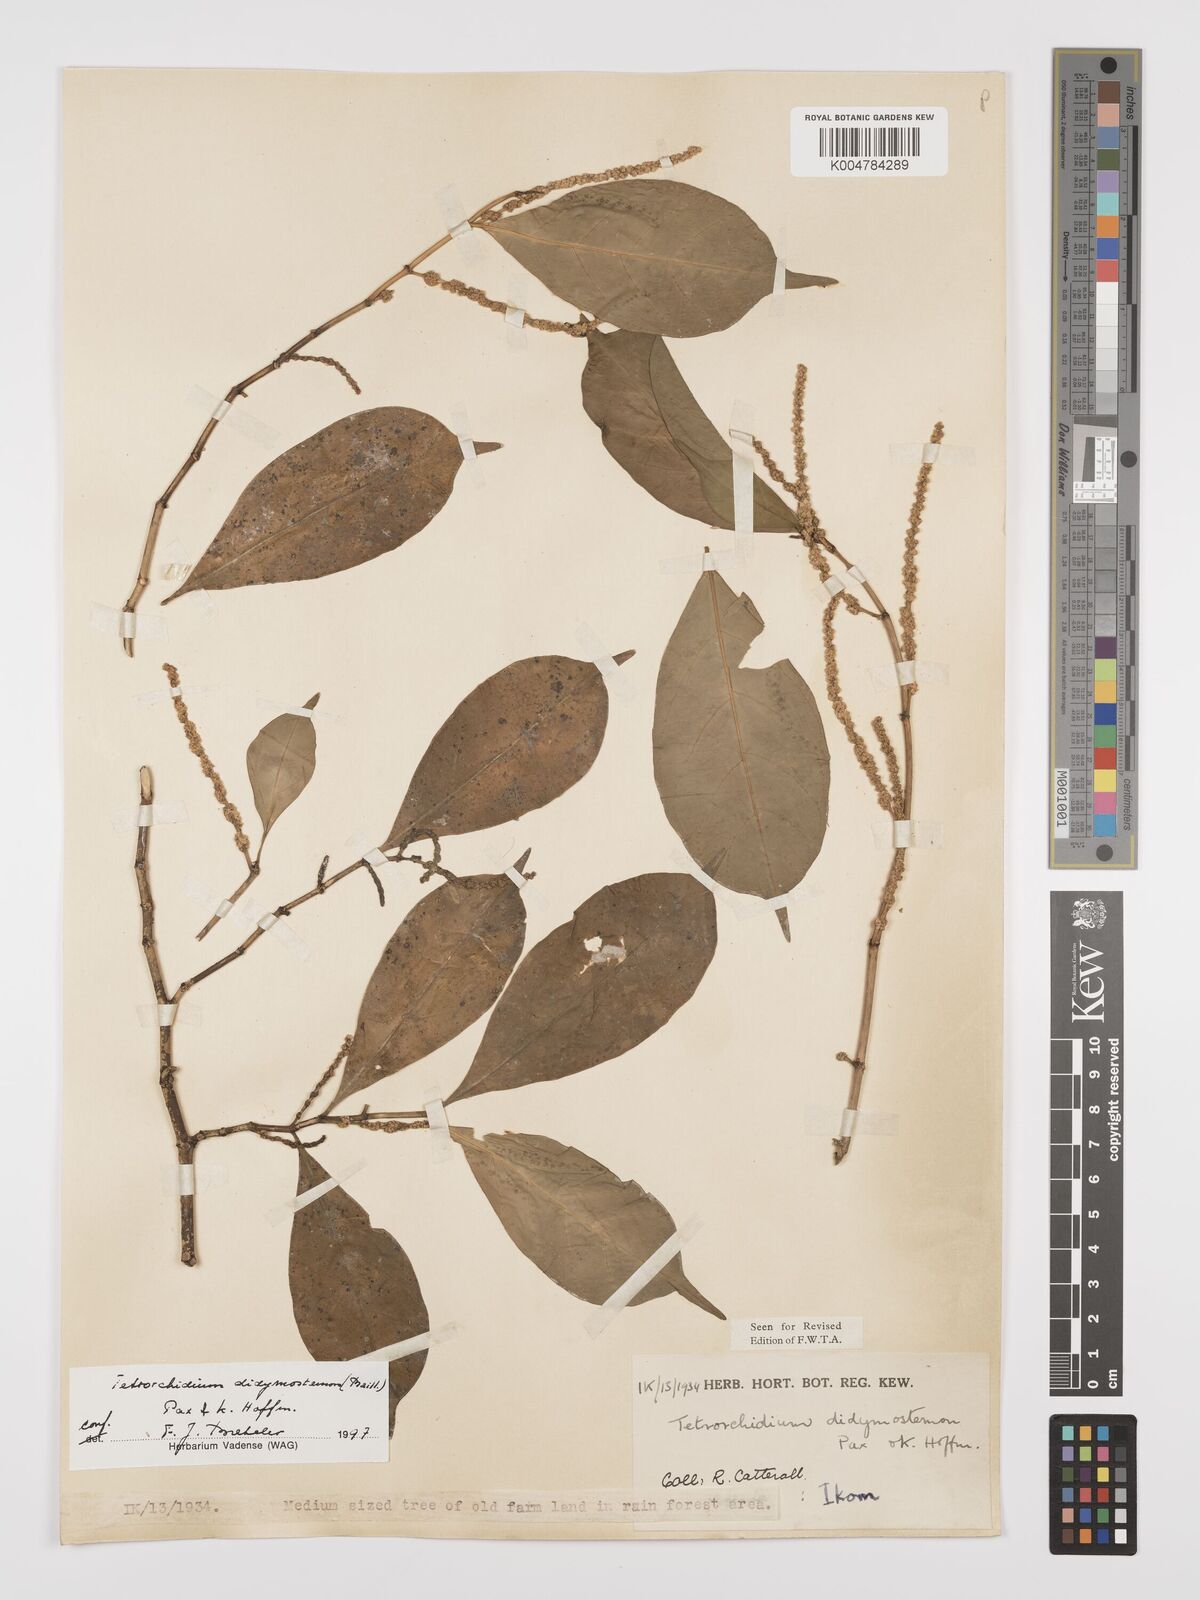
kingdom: Plantae
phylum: Tracheophyta
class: Magnoliopsida
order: Malpighiales
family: Euphorbiaceae
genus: Tetrorchidium
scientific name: Tetrorchidium didymostemon
